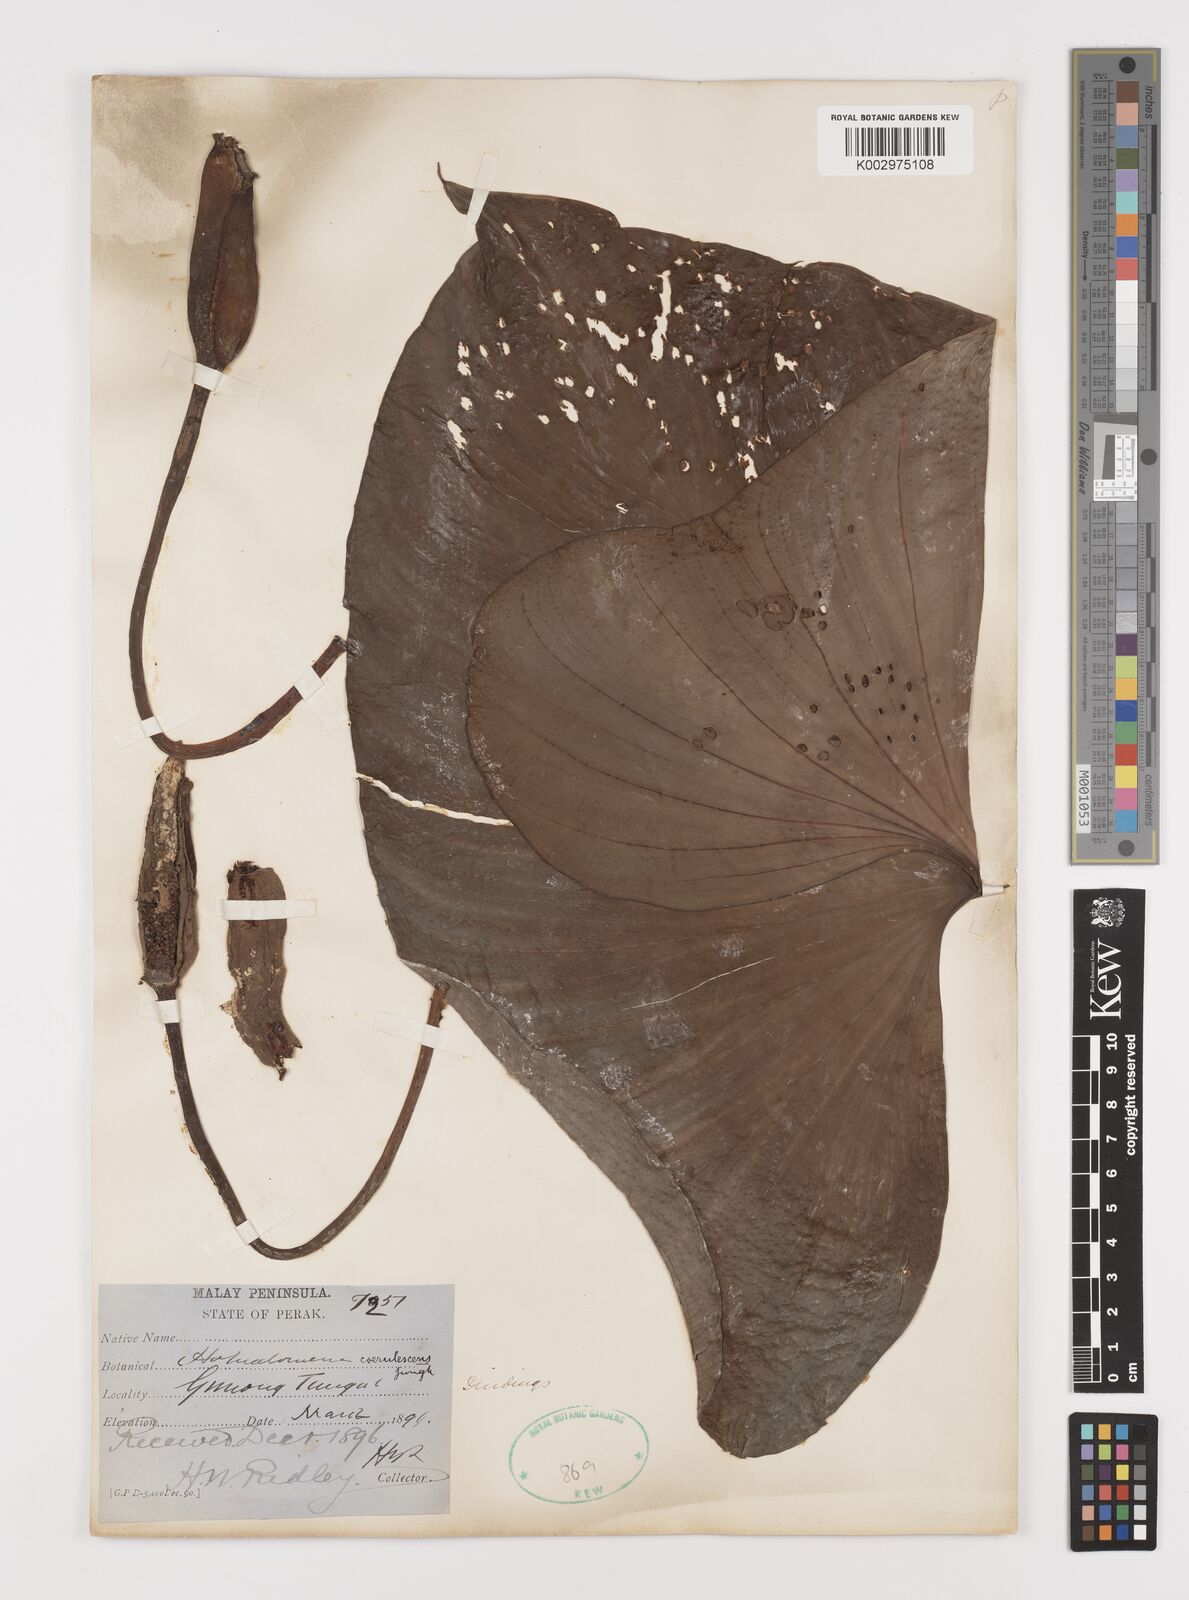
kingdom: Plantae
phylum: Tracheophyta
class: Liliopsida
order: Alismatales
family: Araceae
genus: Homalomena
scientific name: Homalomena pendula
